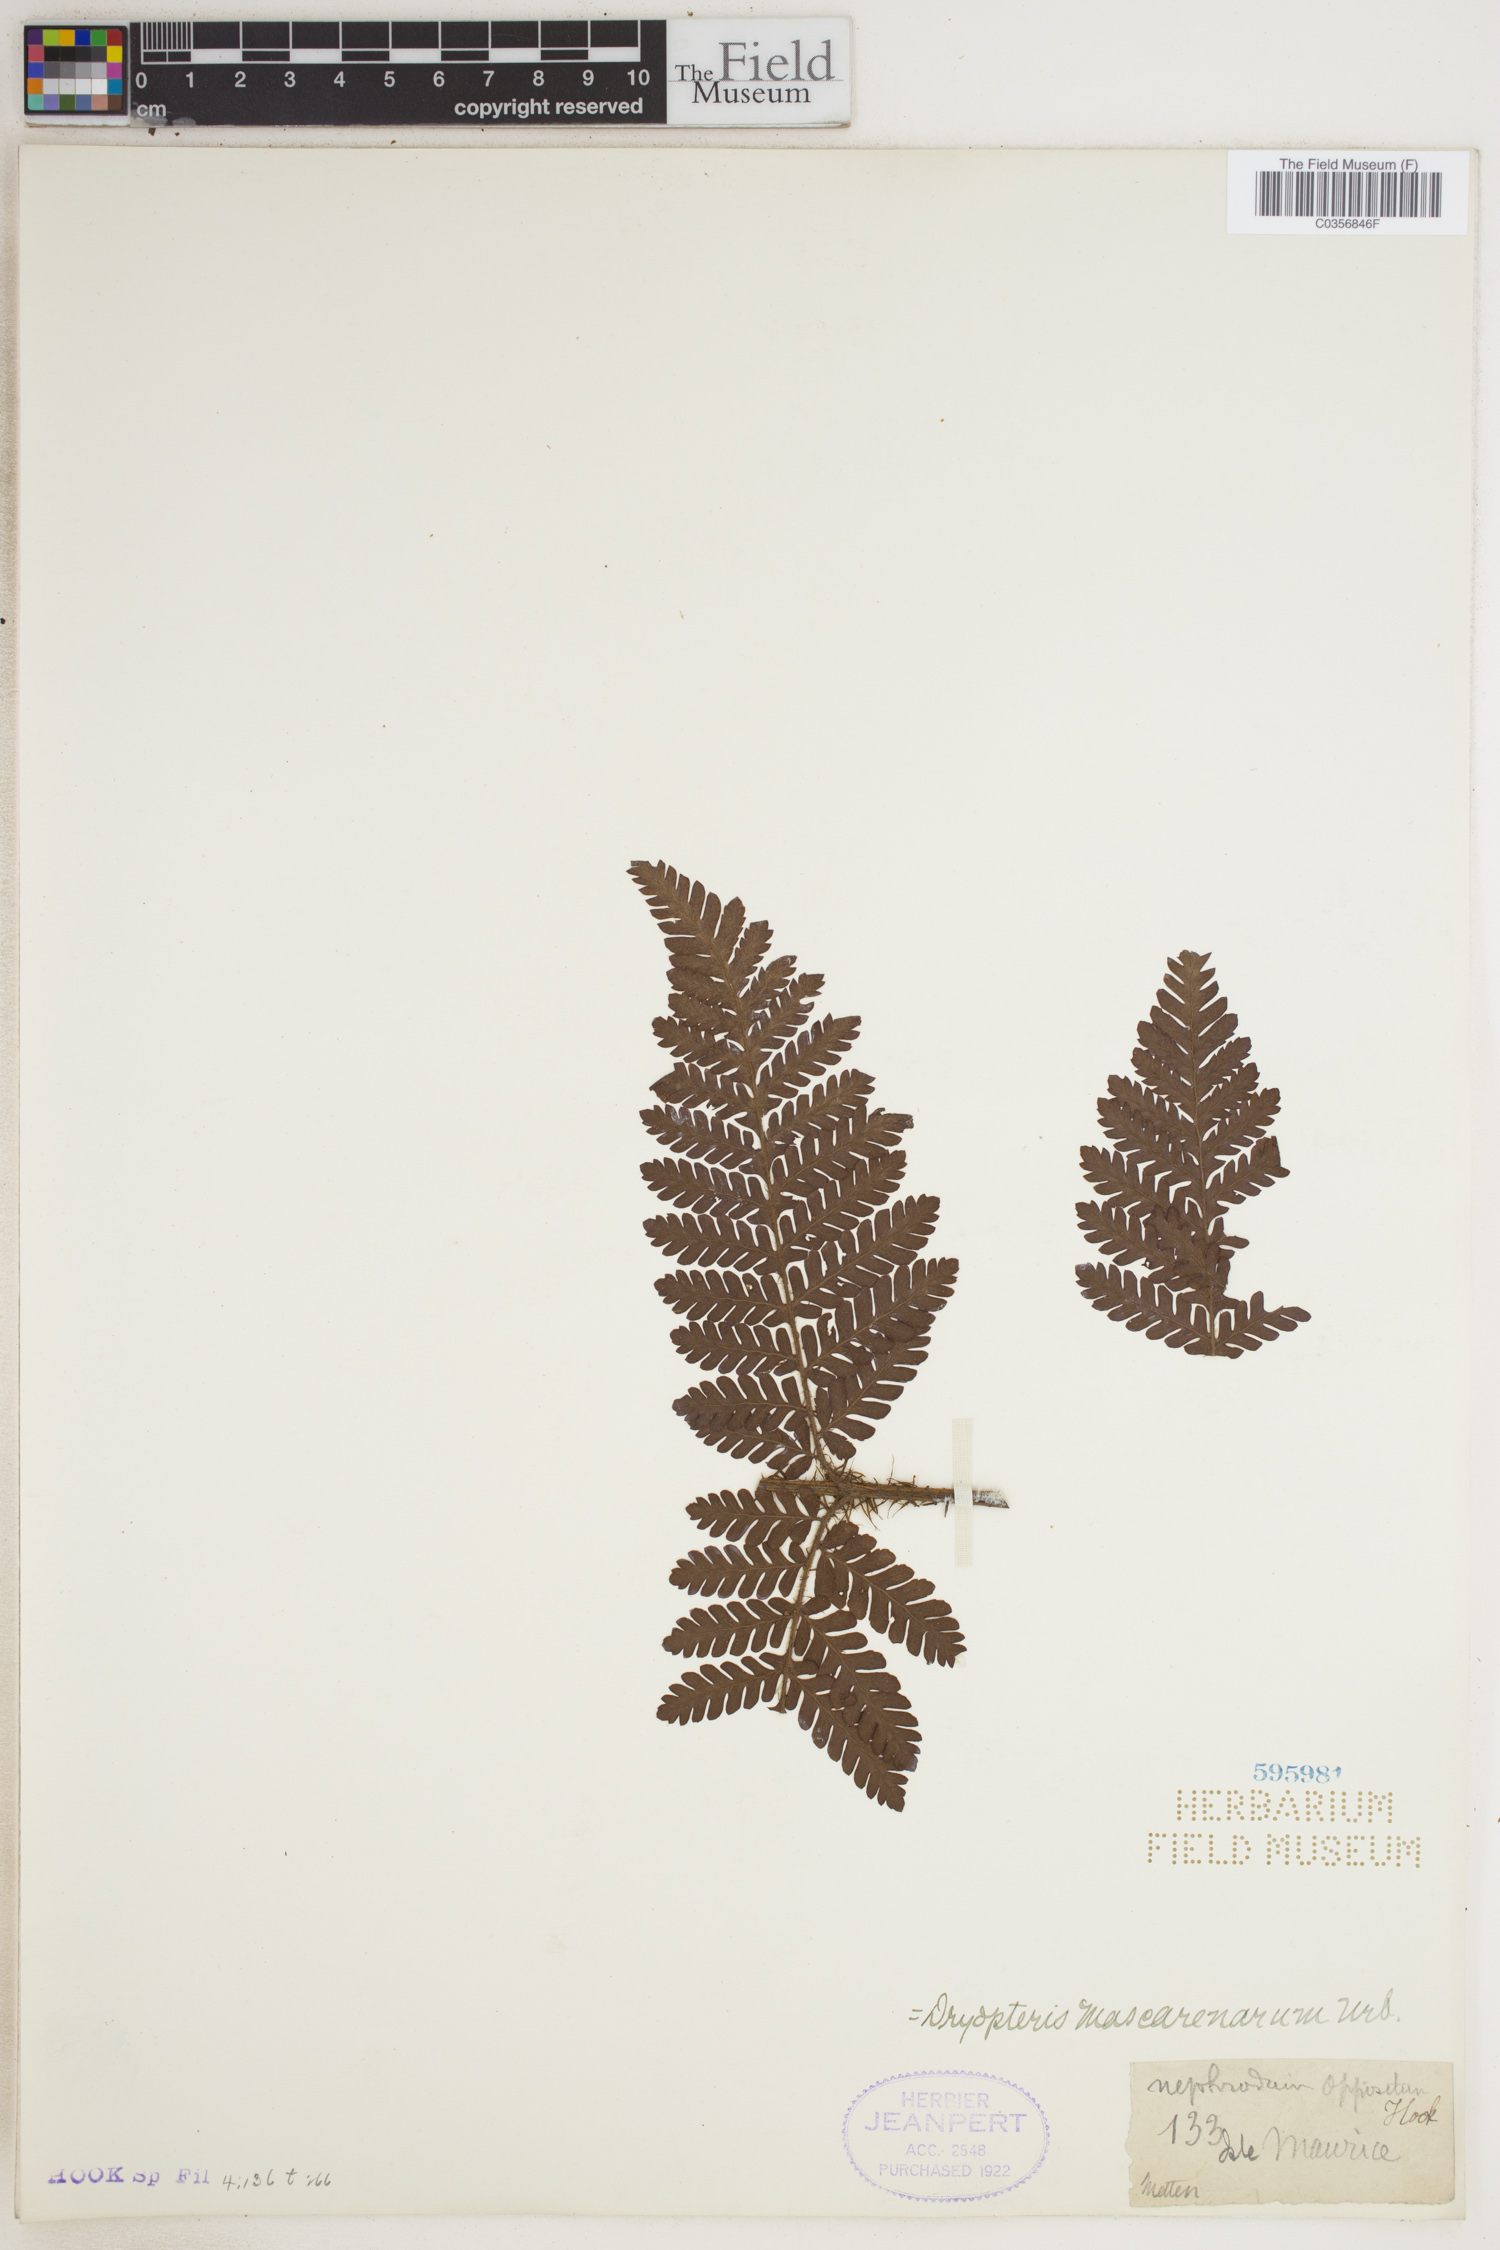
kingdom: Plantae
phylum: Tracheophyta
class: Polypodiopsida
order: Polypodiales
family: Dryopteridaceae
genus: Megalastrum
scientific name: Megalastrum oppositum
